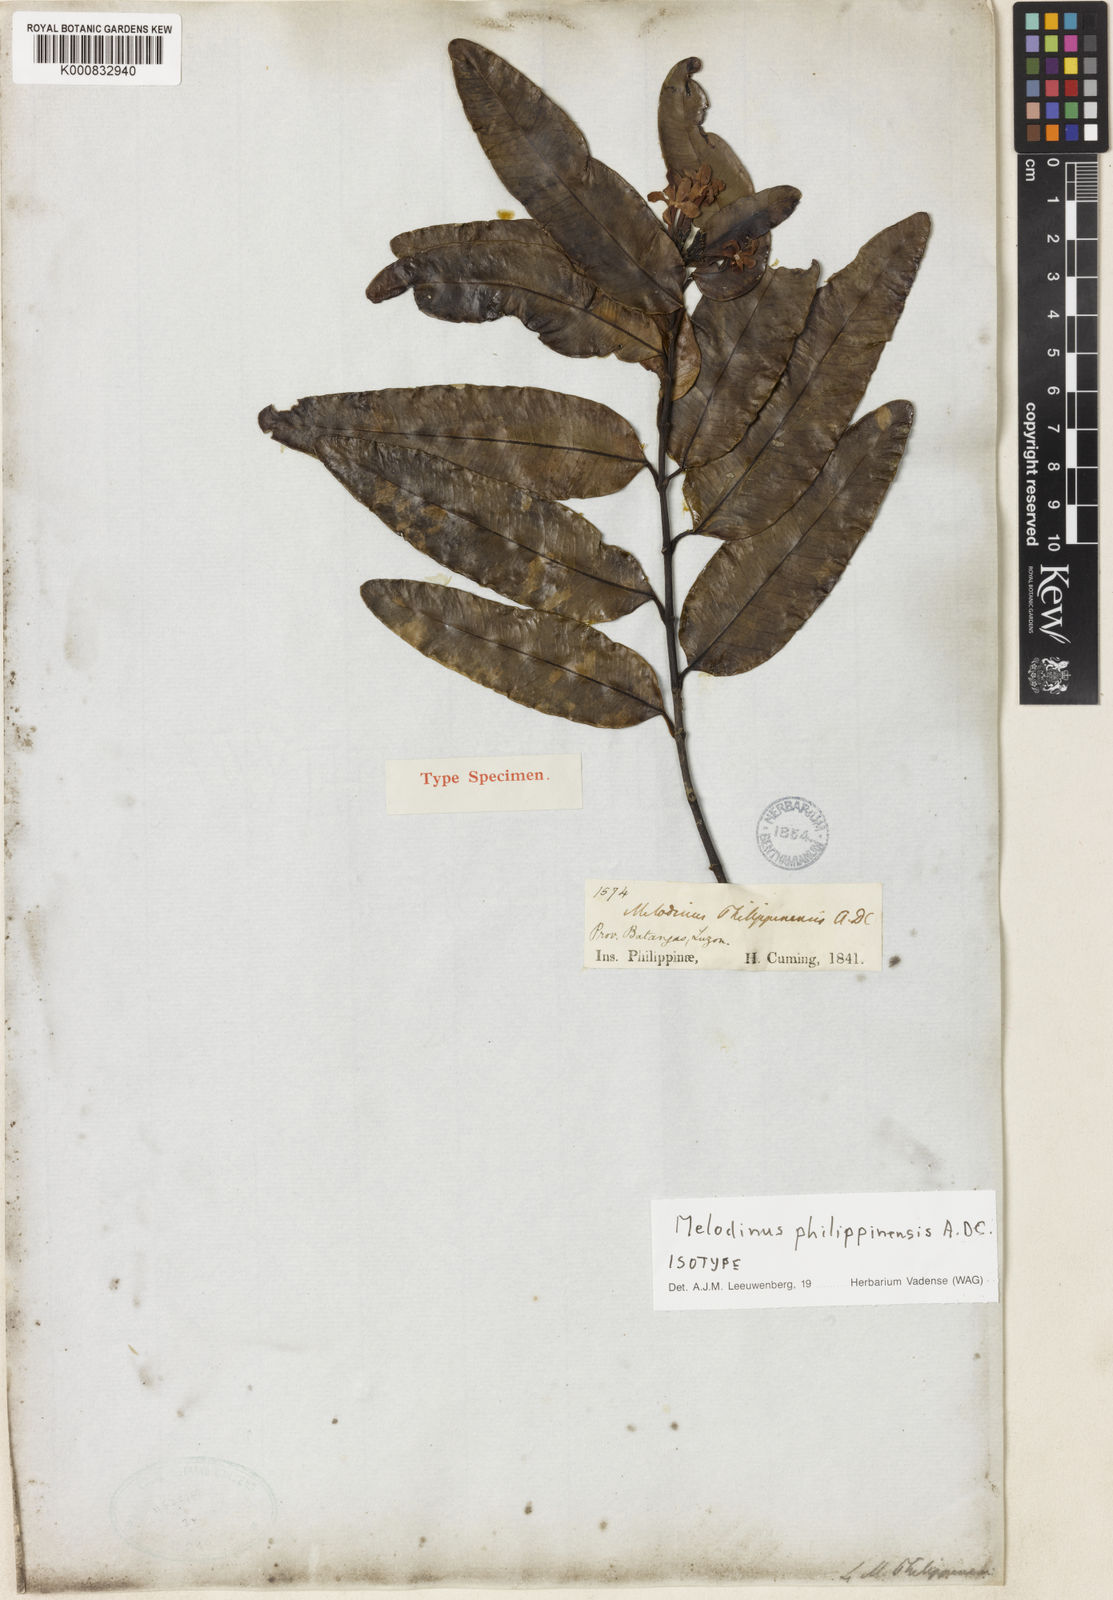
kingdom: Plantae
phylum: Tracheophyta
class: Magnoliopsida
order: Gentianales
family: Apocynaceae
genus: Melodinus
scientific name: Melodinus
